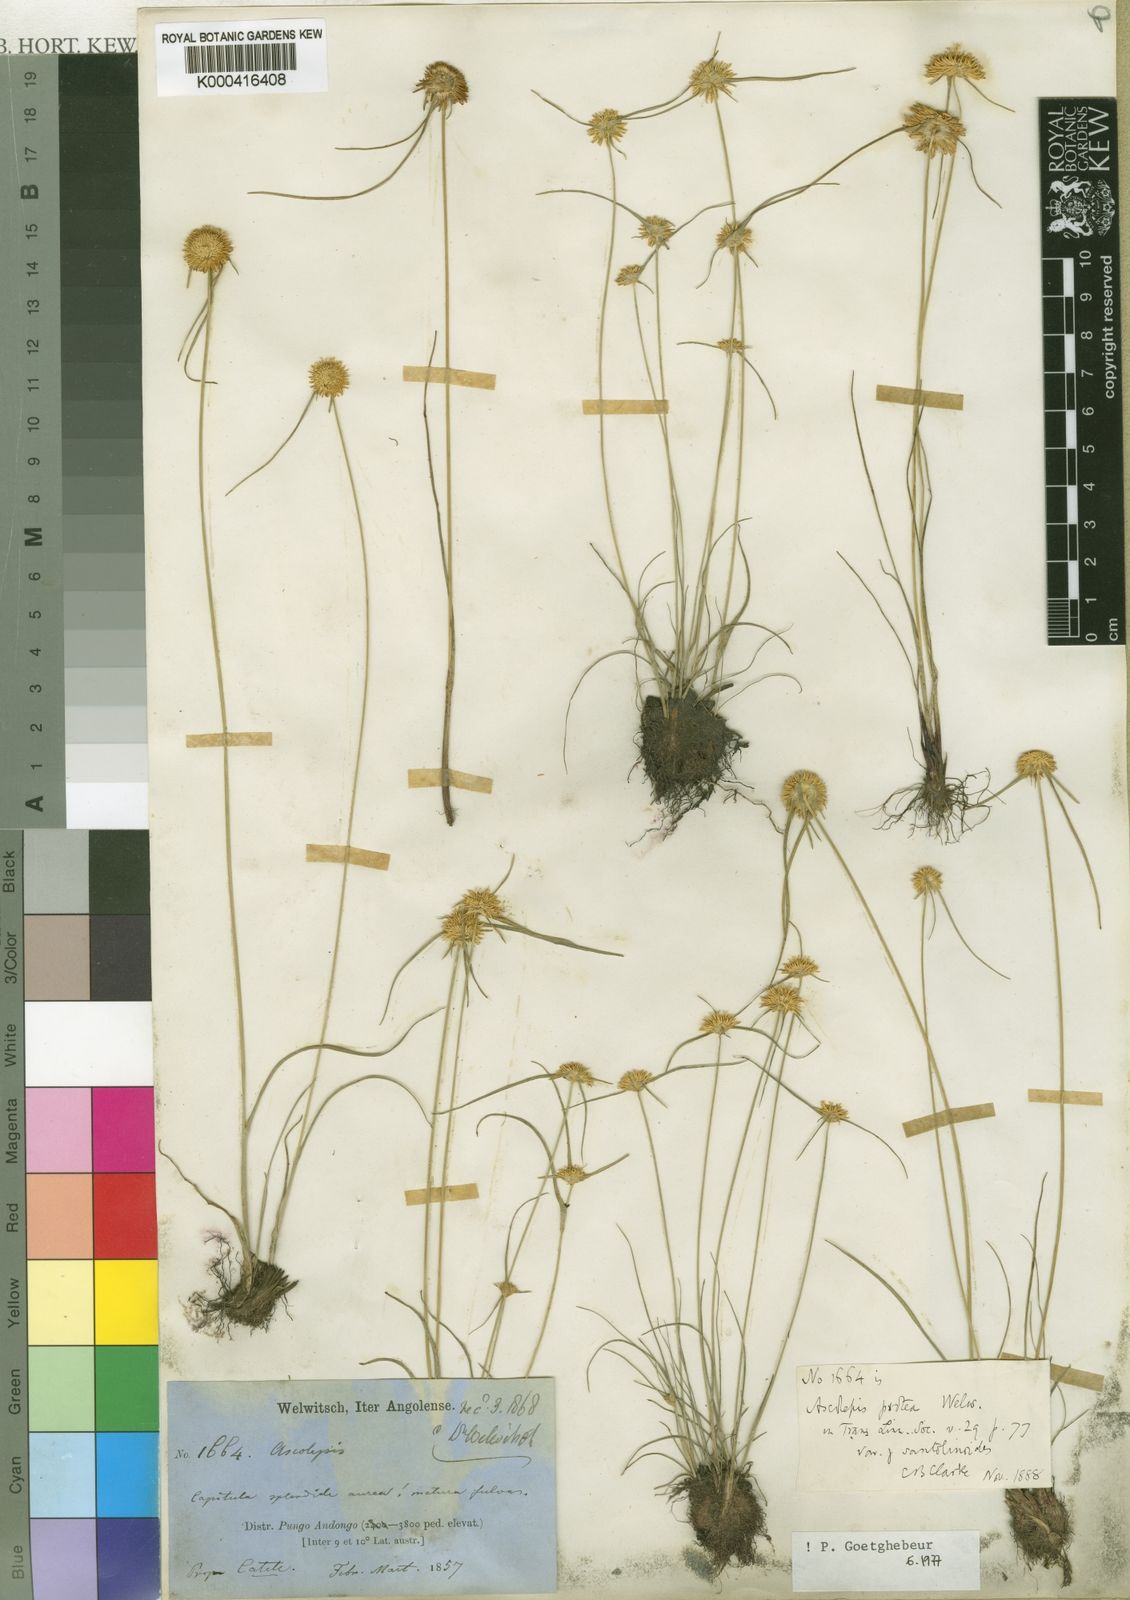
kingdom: Plantae
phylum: Tracheophyta
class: Liliopsida
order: Poales
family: Cyperaceae
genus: Cyperus
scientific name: Cyperus proteus
